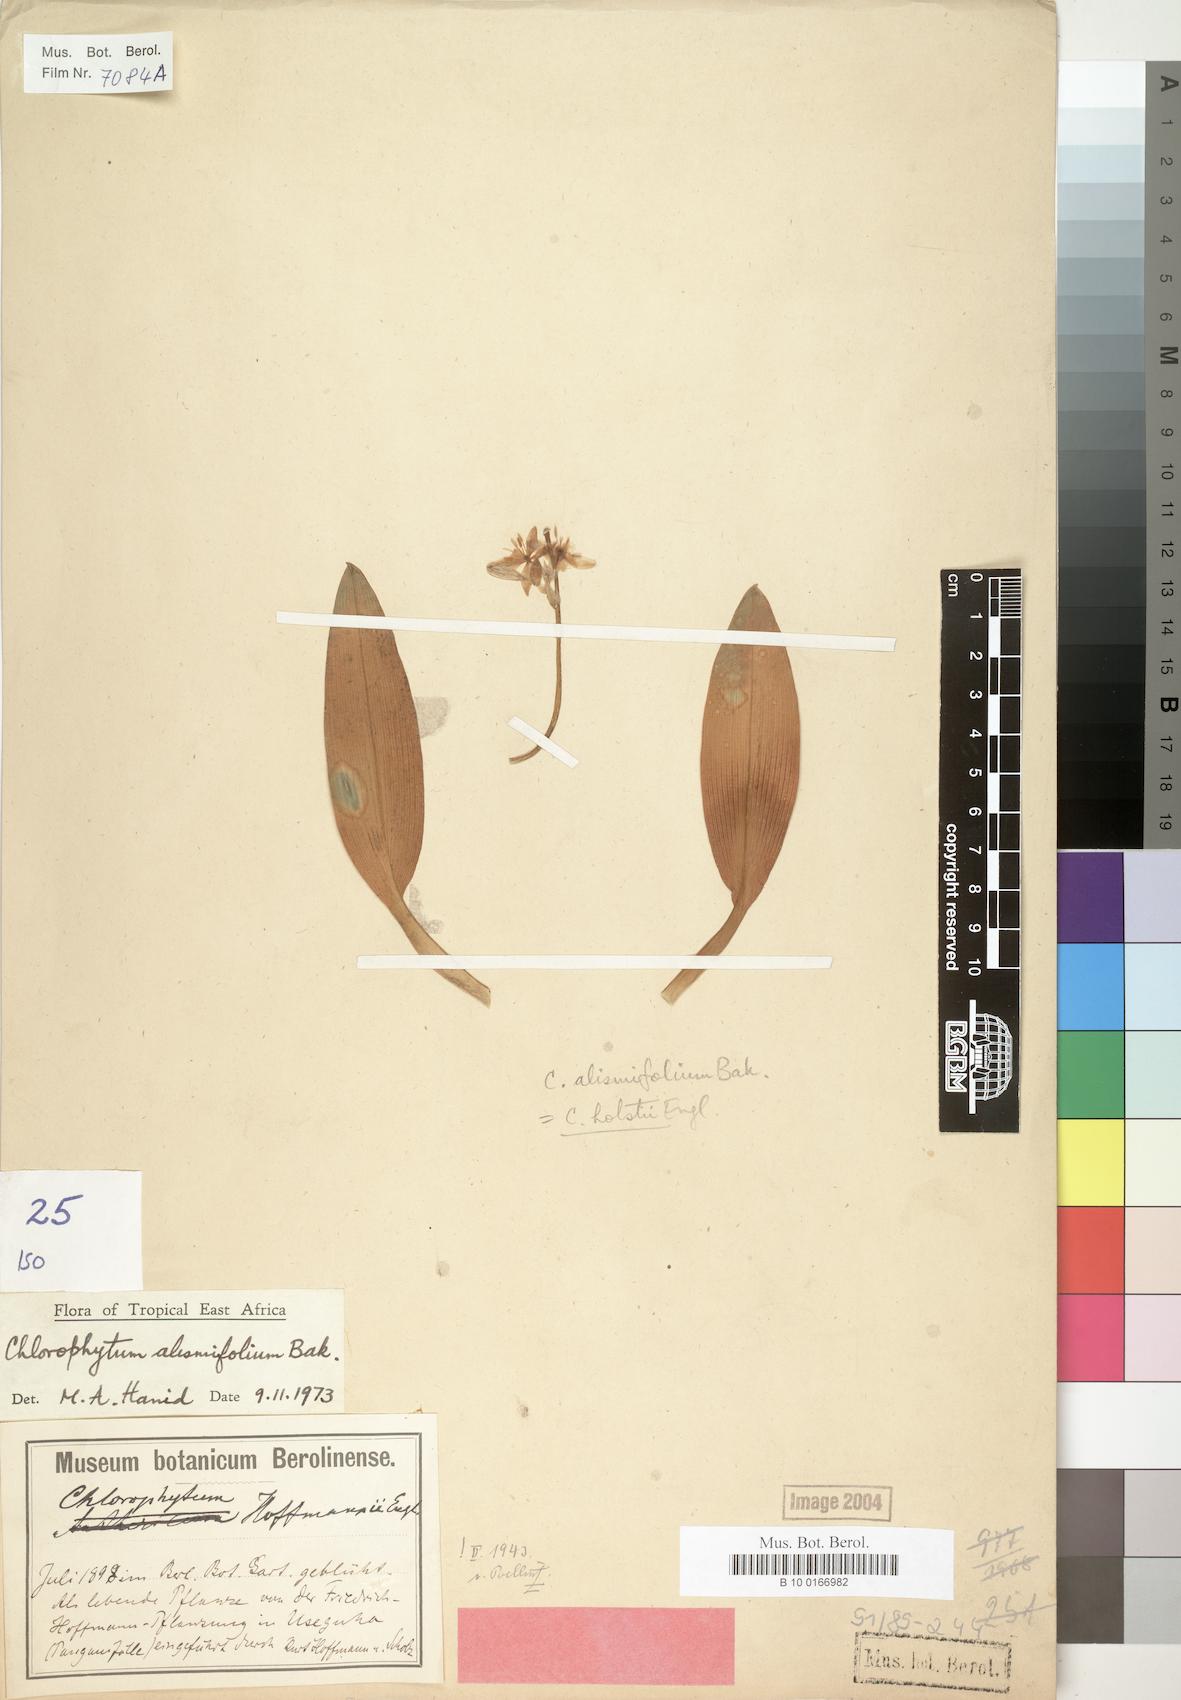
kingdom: Plantae
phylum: Tracheophyta
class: Liliopsida
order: Asparagales
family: Asparagaceae
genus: Chlorophytum
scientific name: Chlorophytum holstii
